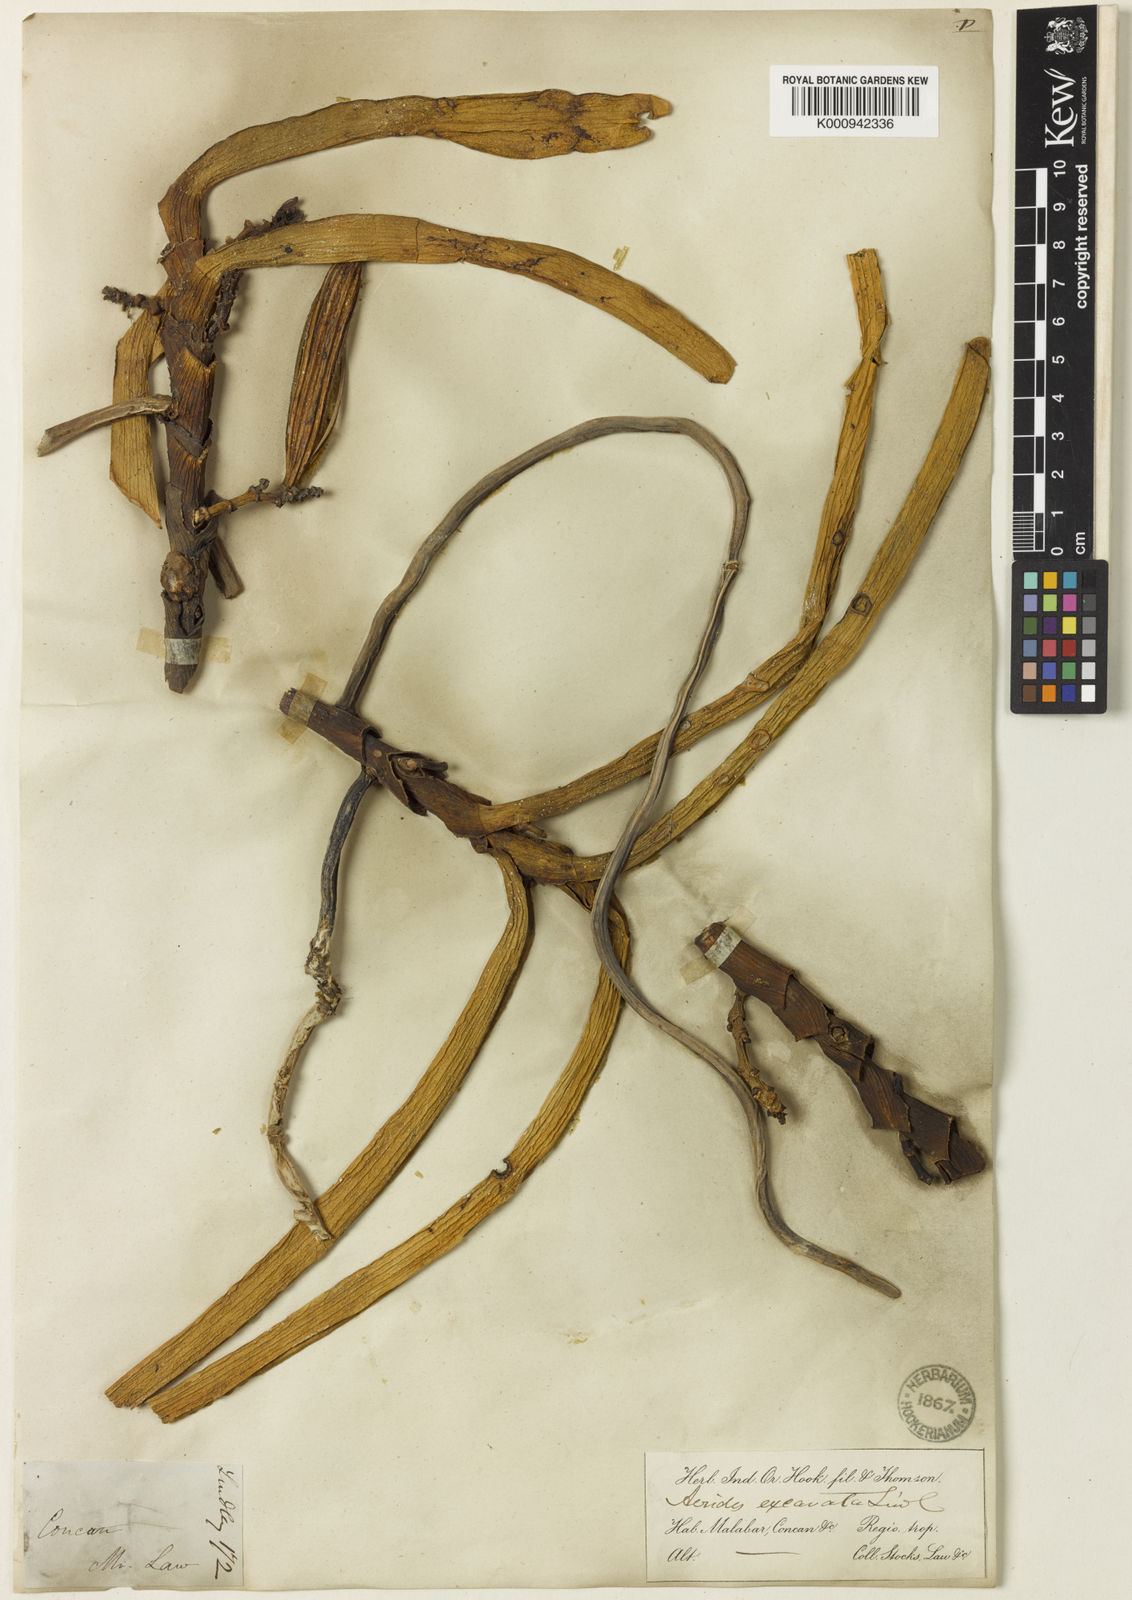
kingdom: Plantae
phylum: Tracheophyta
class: Liliopsida
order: Asparagales
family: Orchidaceae
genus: Acampe
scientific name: Acampe praemorsa
